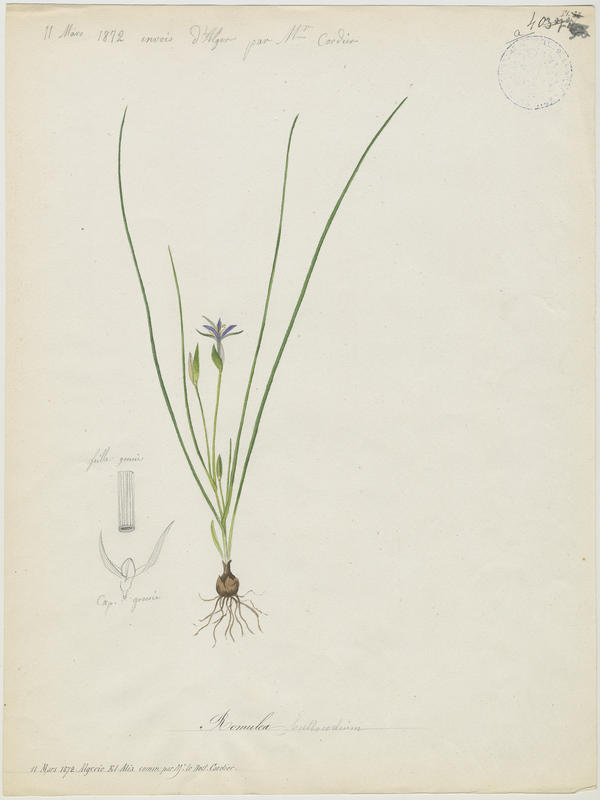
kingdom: Plantae
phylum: Tracheophyta
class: Liliopsida
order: Asparagales
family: Iridaceae
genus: Romulea
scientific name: Romulea numidica
